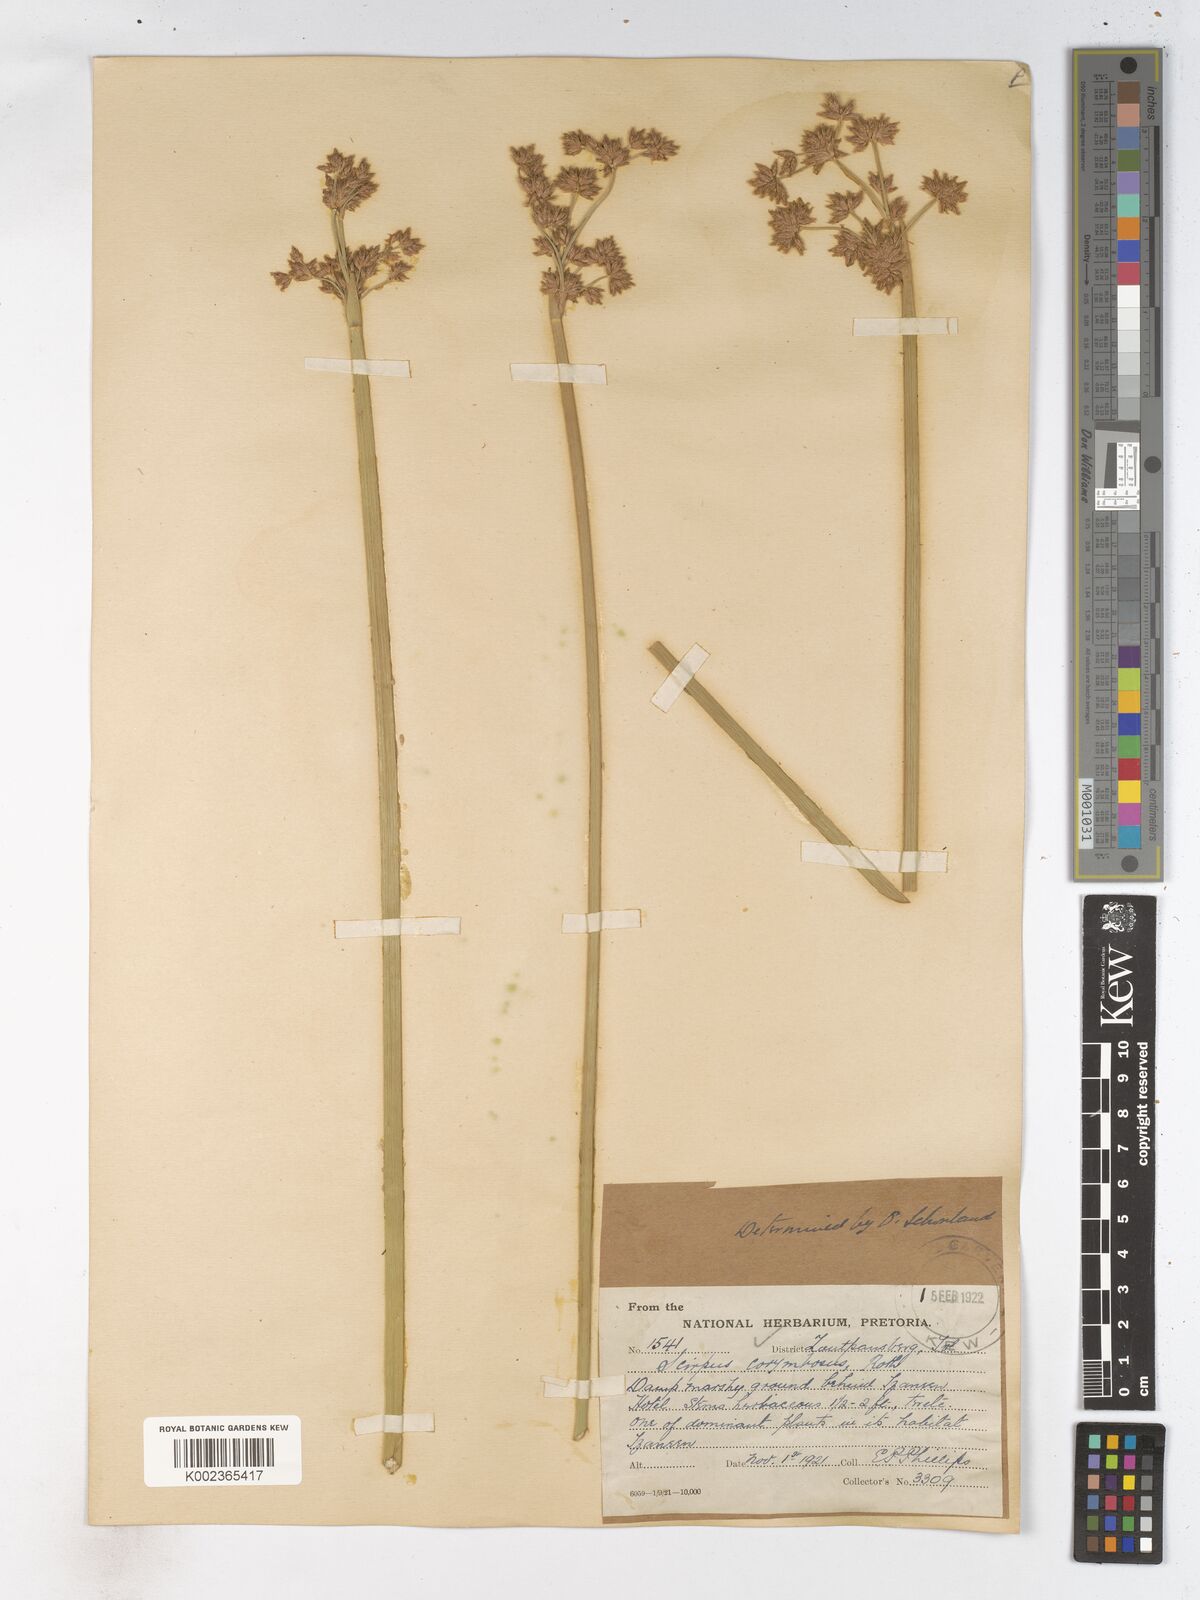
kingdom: Plantae
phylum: Tracheophyta
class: Liliopsida
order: Poales
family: Cyperaceae
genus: Schoenoplectiella
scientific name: Schoenoplectiella brachyceras
